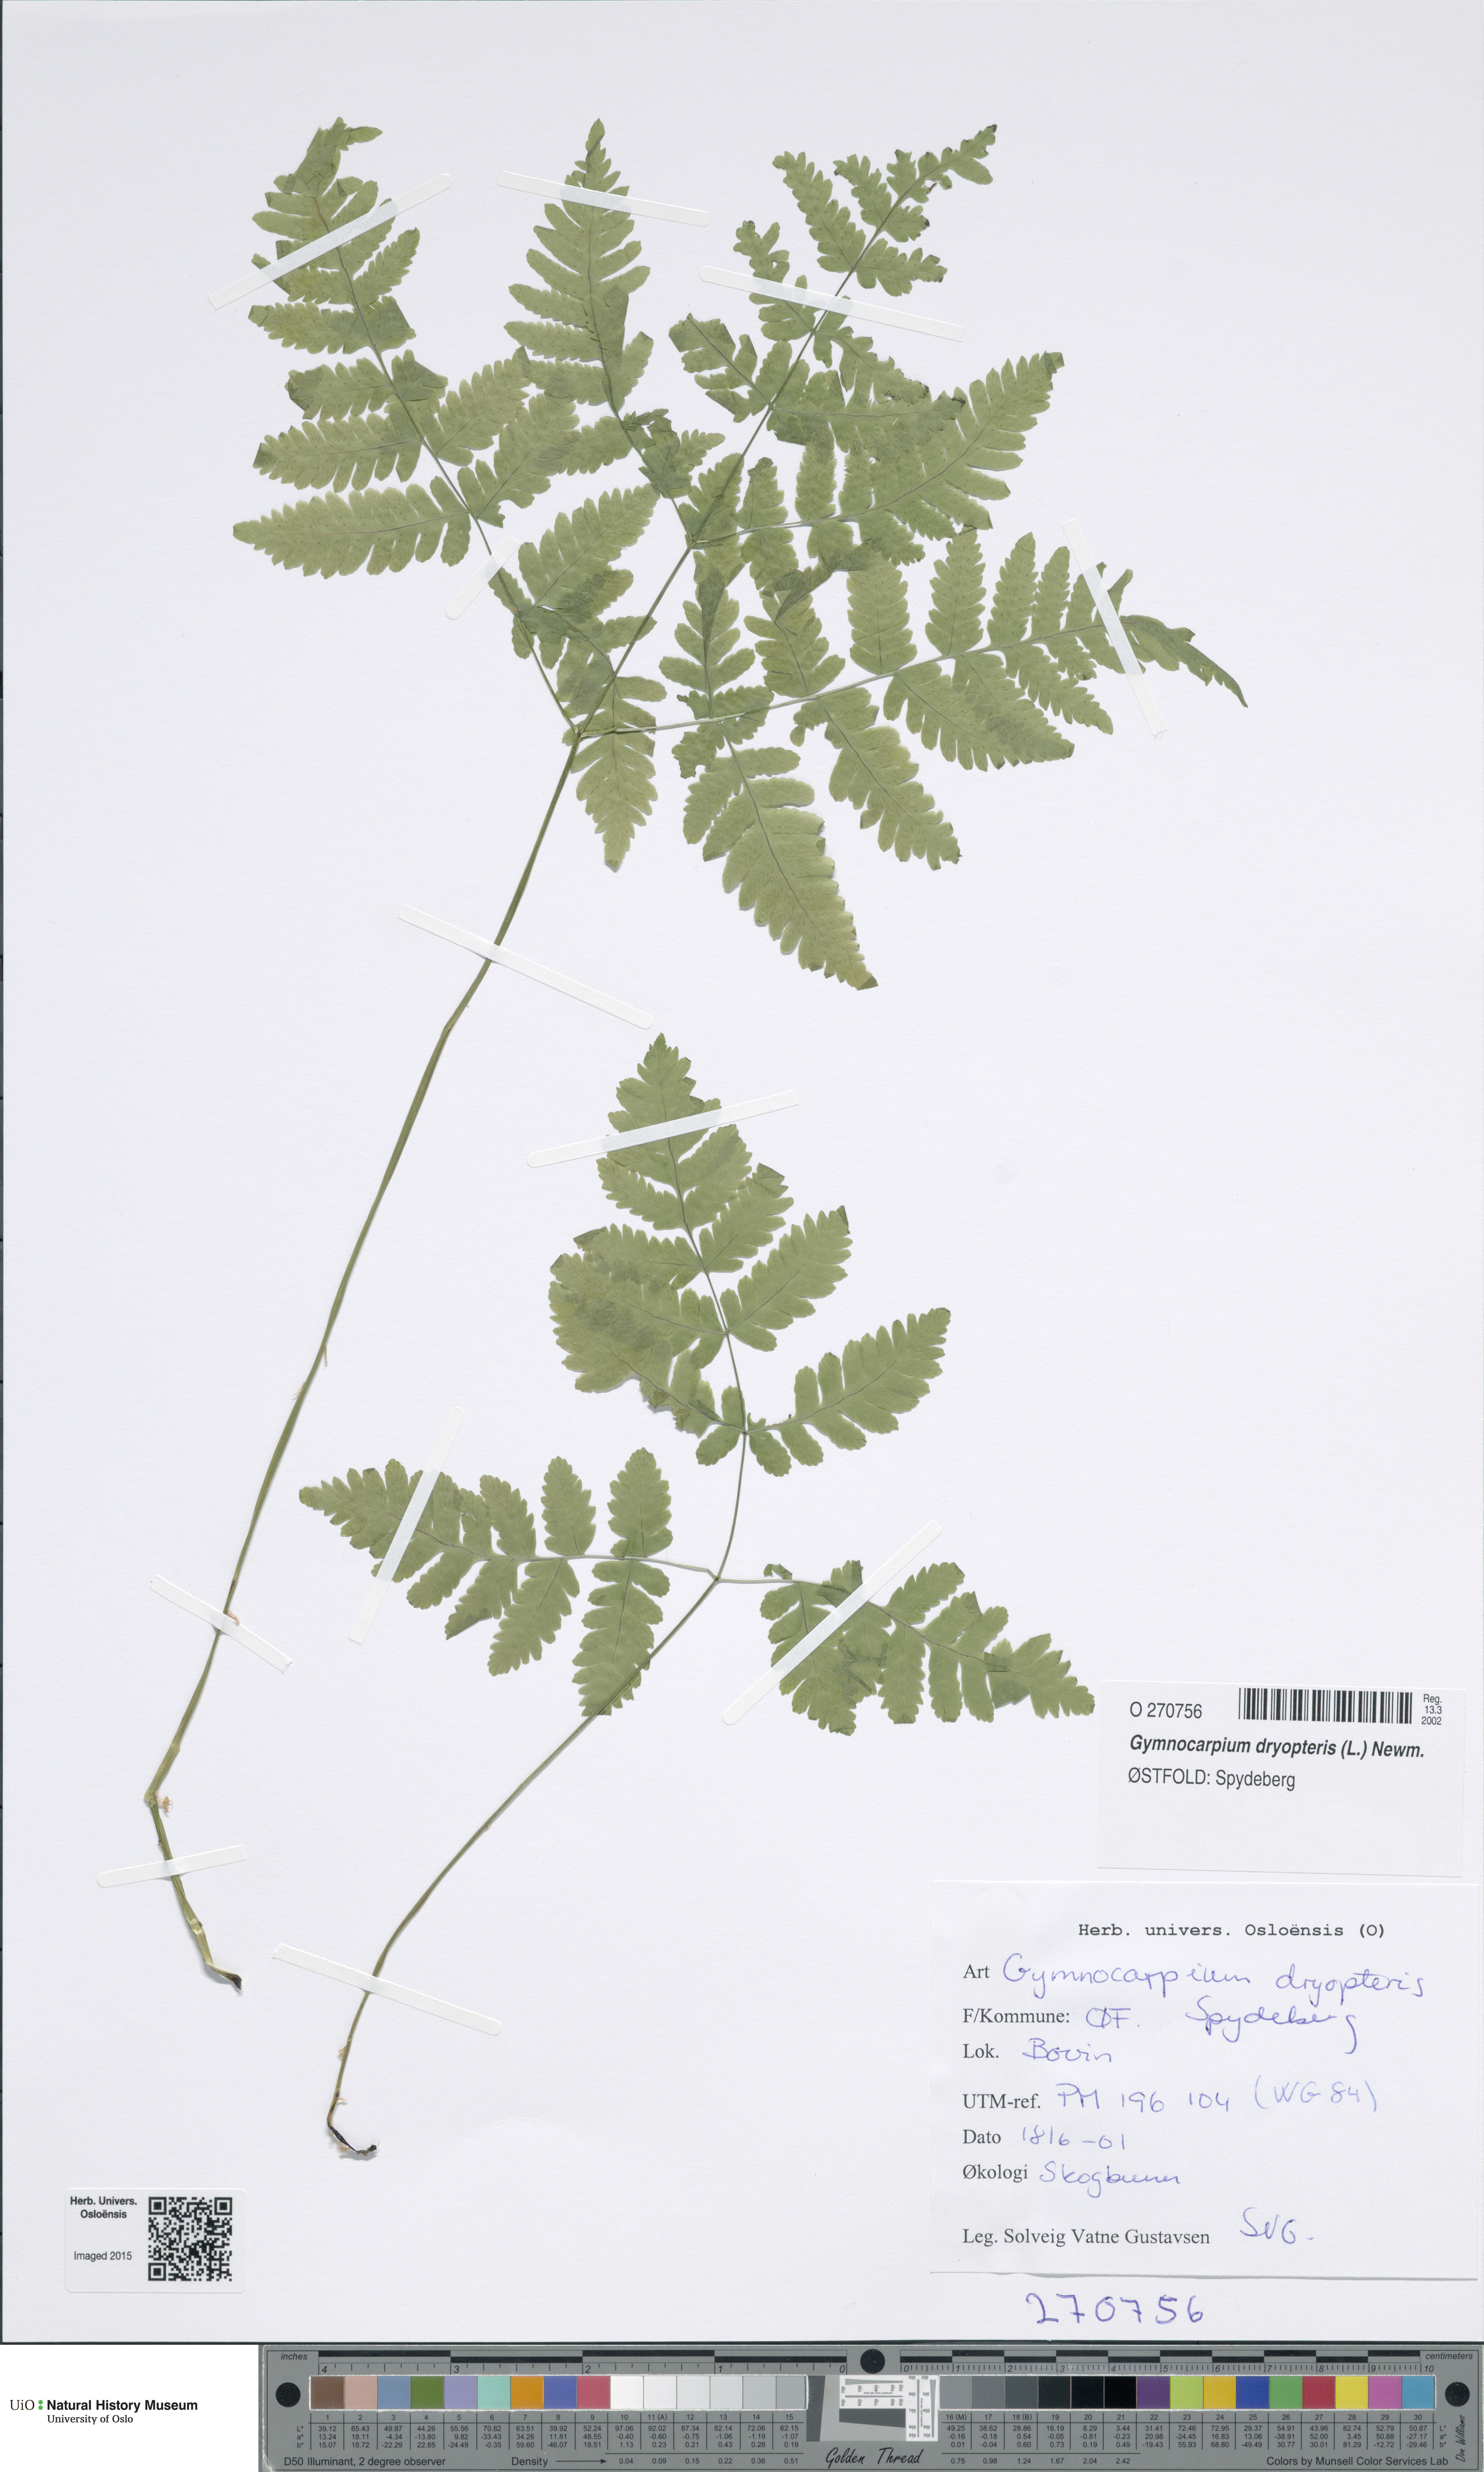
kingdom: Plantae
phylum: Tracheophyta
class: Polypodiopsida
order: Polypodiales
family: Cystopteridaceae
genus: Gymnocarpium
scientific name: Gymnocarpium dryopteris
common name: Oak fern
